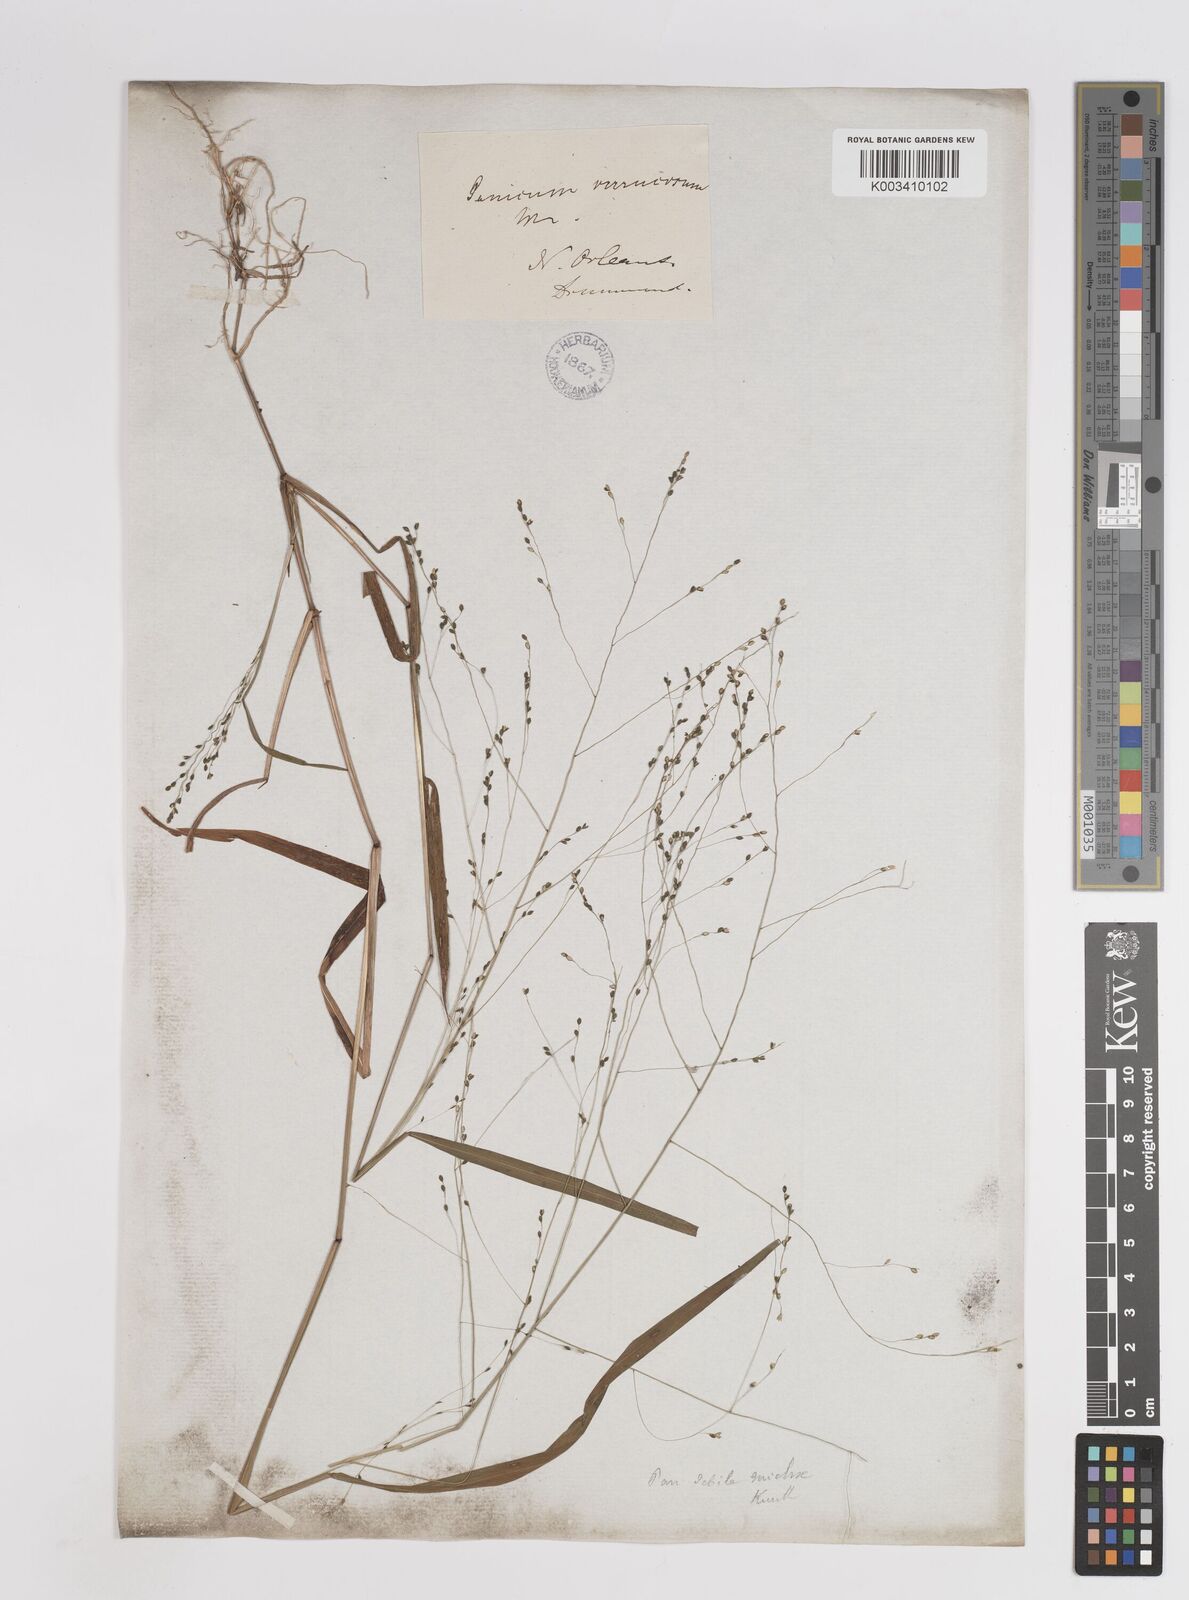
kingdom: Plantae
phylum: Tracheophyta
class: Liliopsida
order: Poales
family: Poaceae
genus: Kellochloa
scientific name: Kellochloa verrucosa
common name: Warty panic grass
